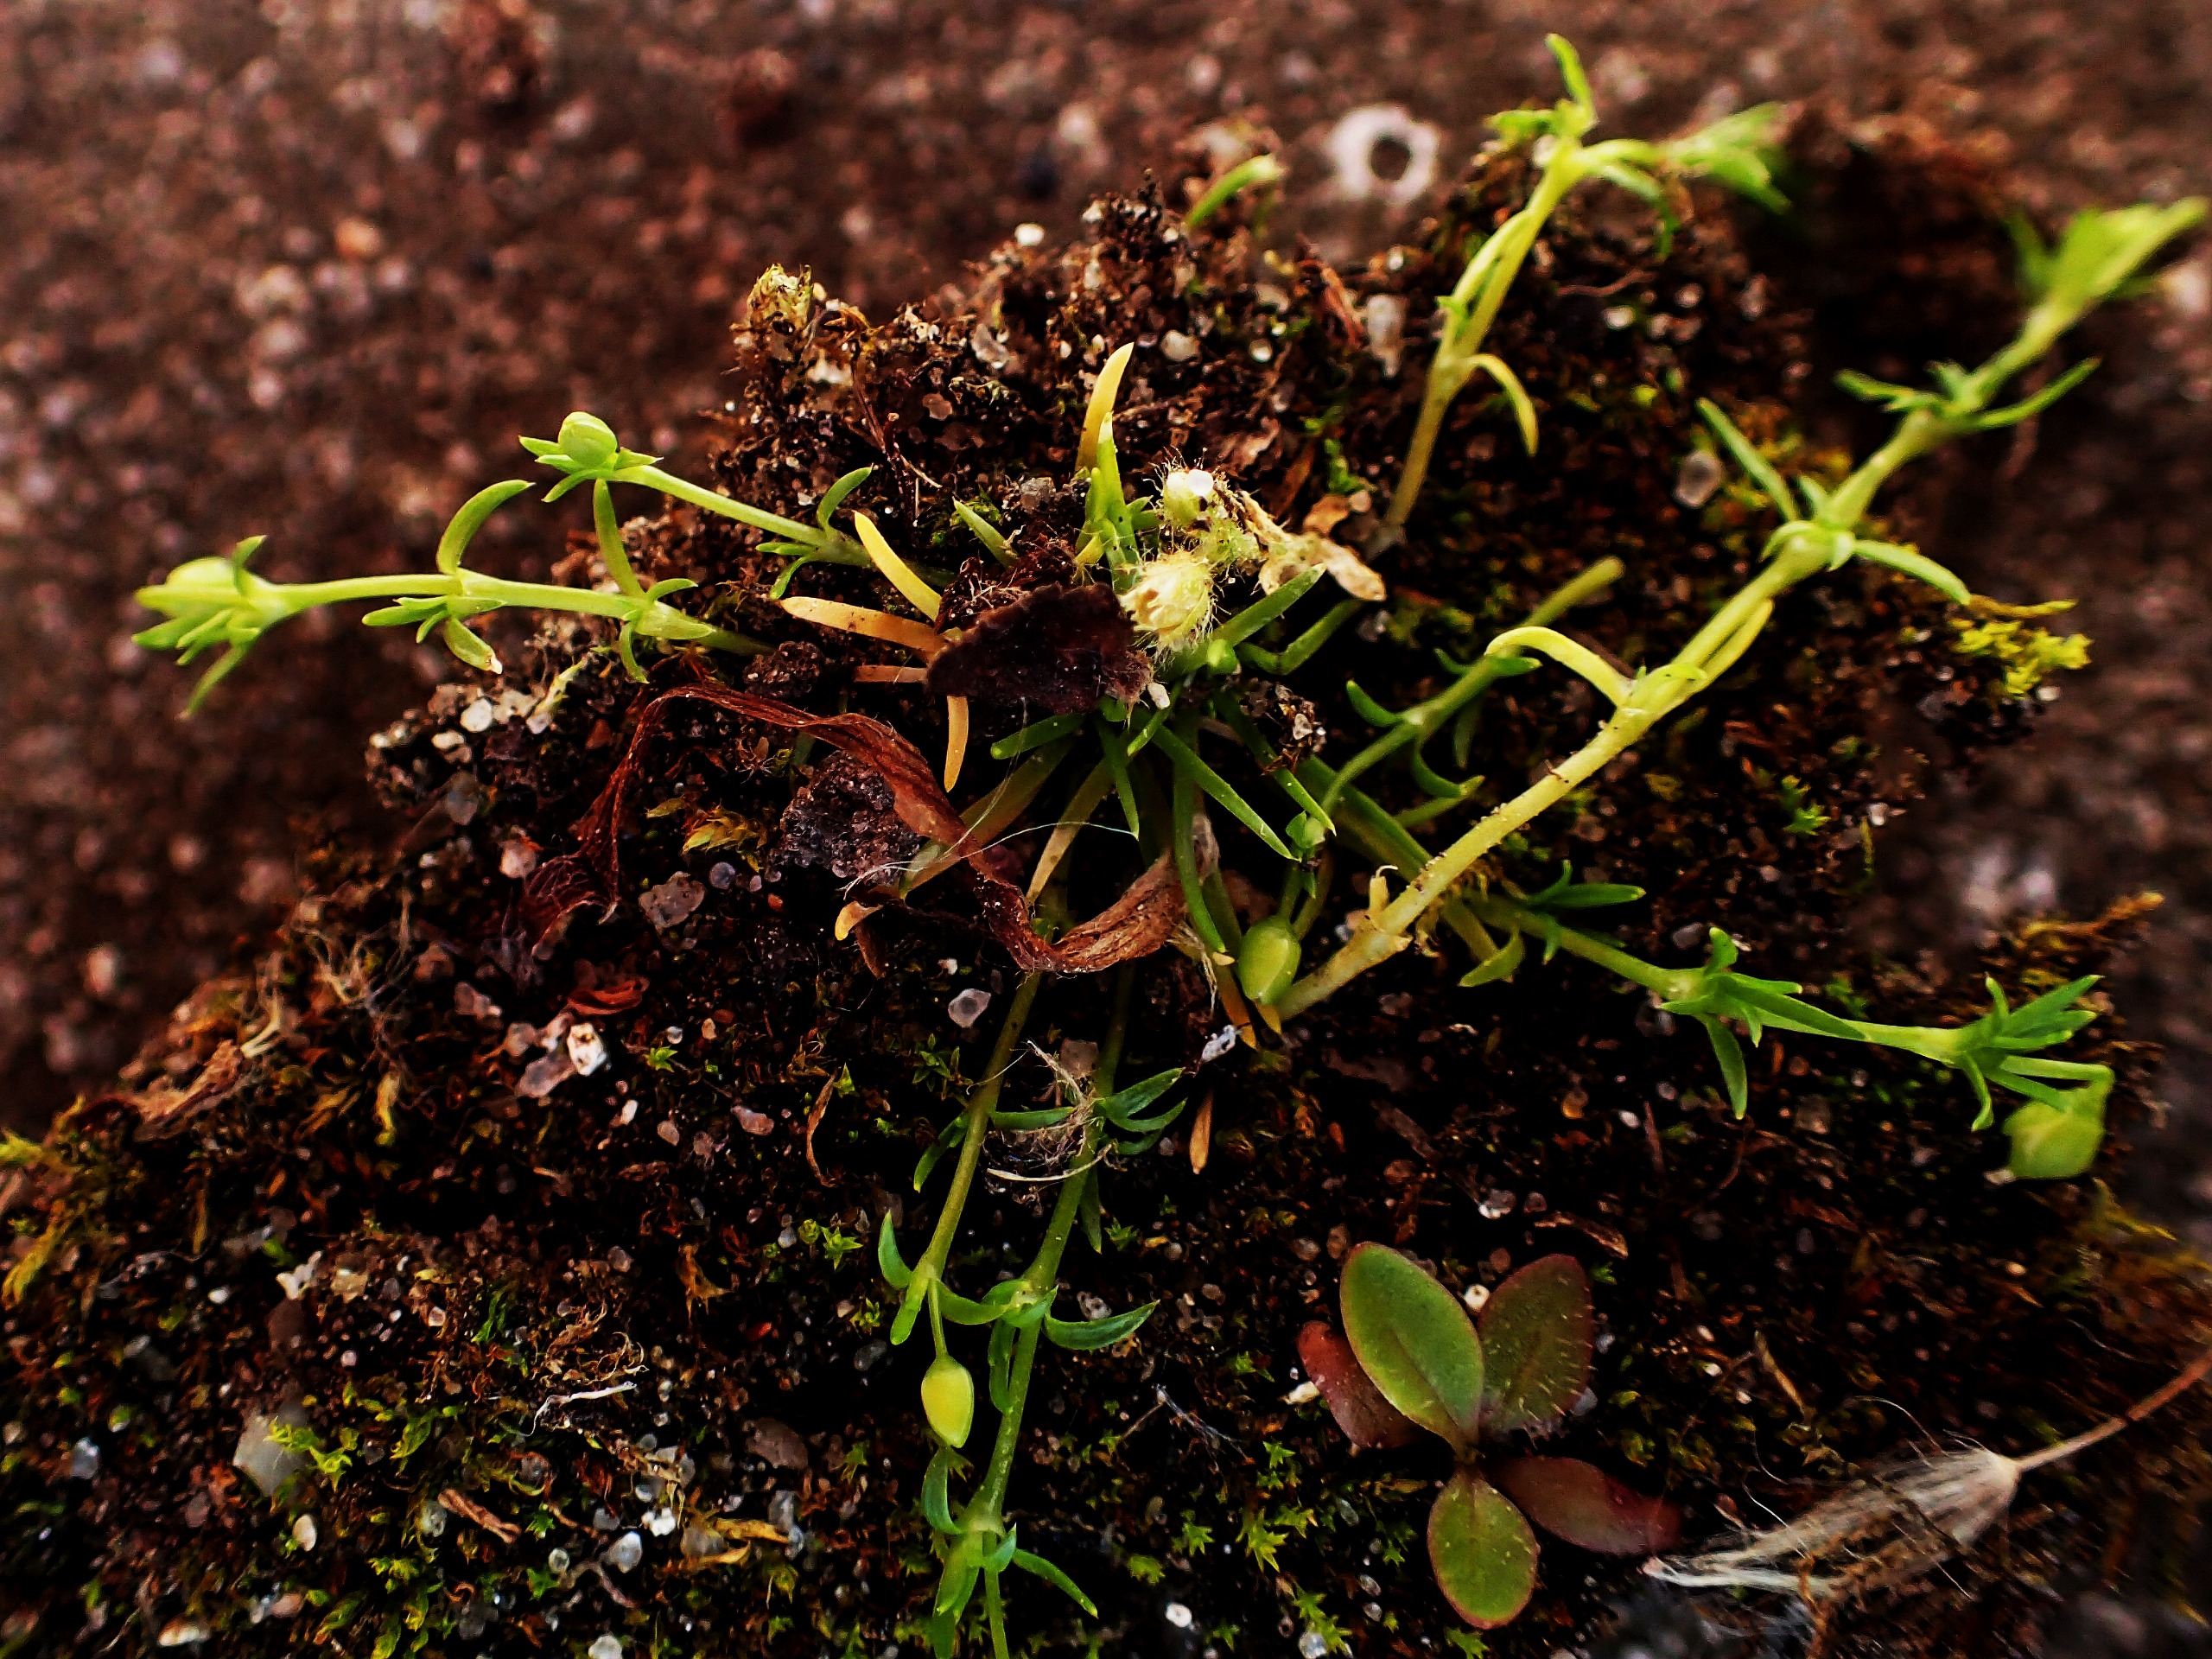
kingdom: Plantae
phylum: Tracheophyta
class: Magnoliopsida
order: Caryophyllales
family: Caryophyllaceae
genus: Sagina
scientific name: Sagina procumbens
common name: Almindelig firling
